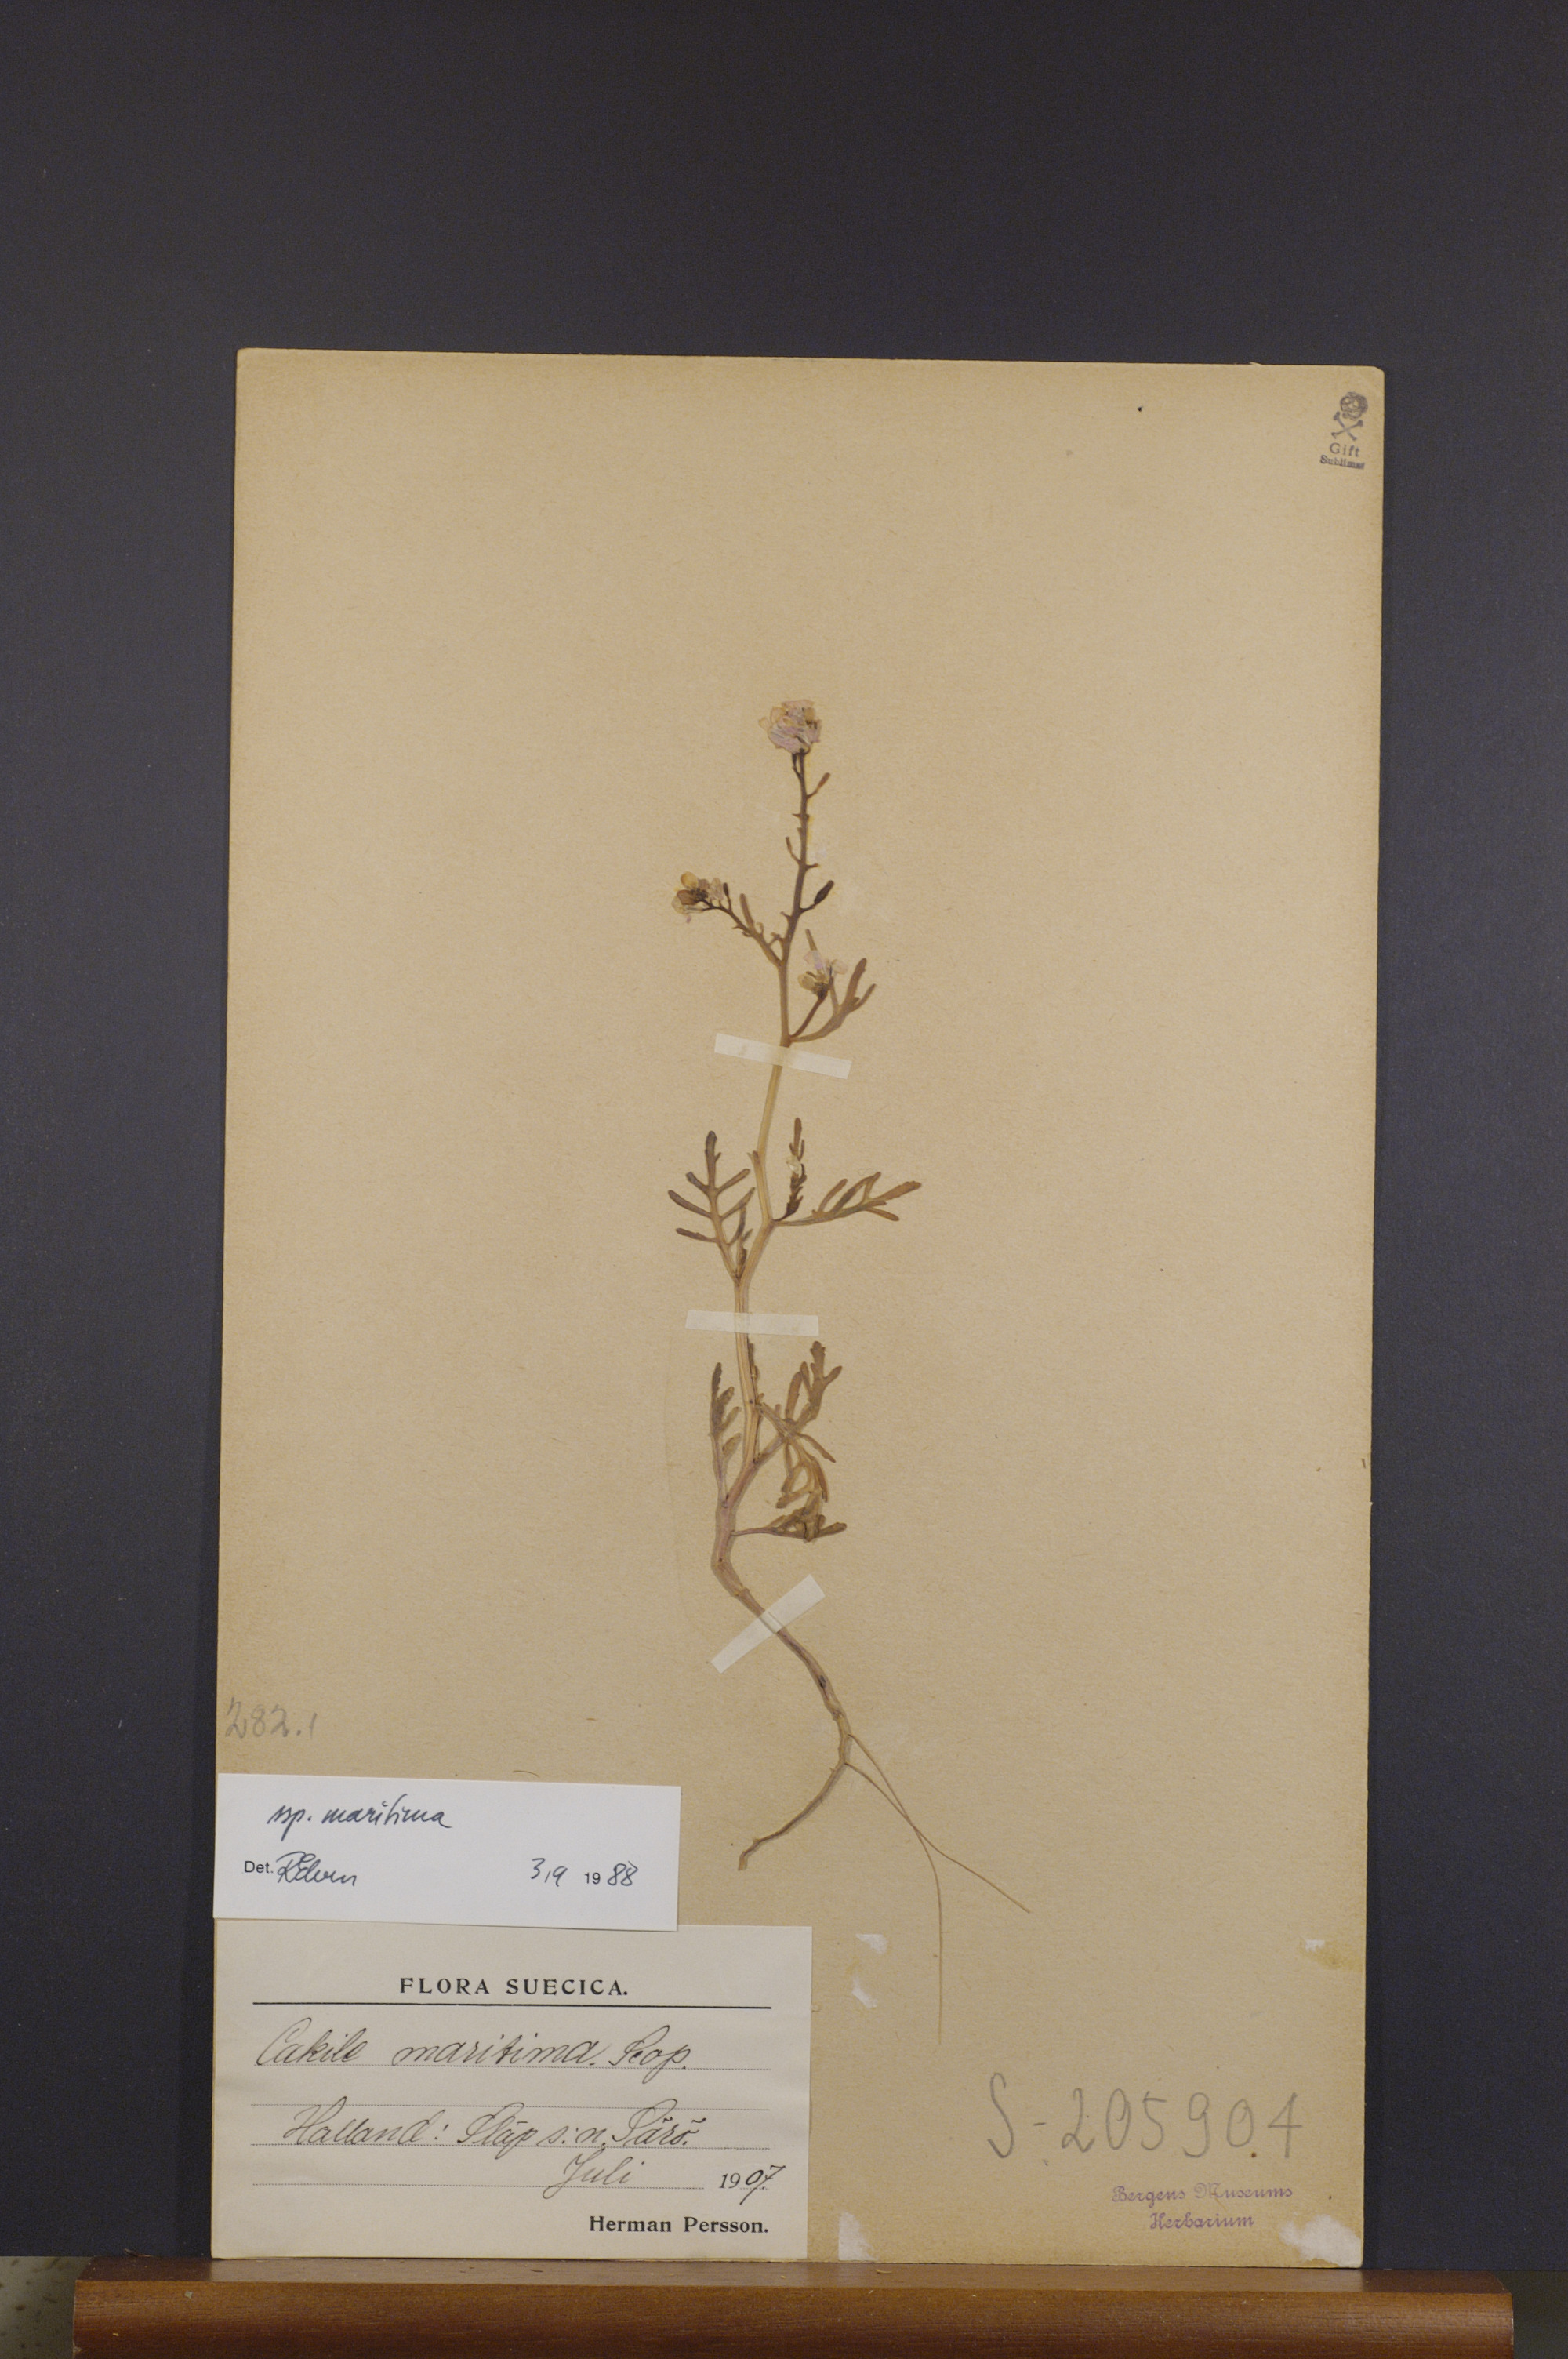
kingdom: Plantae
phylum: Tracheophyta
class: Magnoliopsida
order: Brassicales
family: Brassicaceae
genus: Cakile
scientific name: Cakile maritima
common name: Sea rocket
